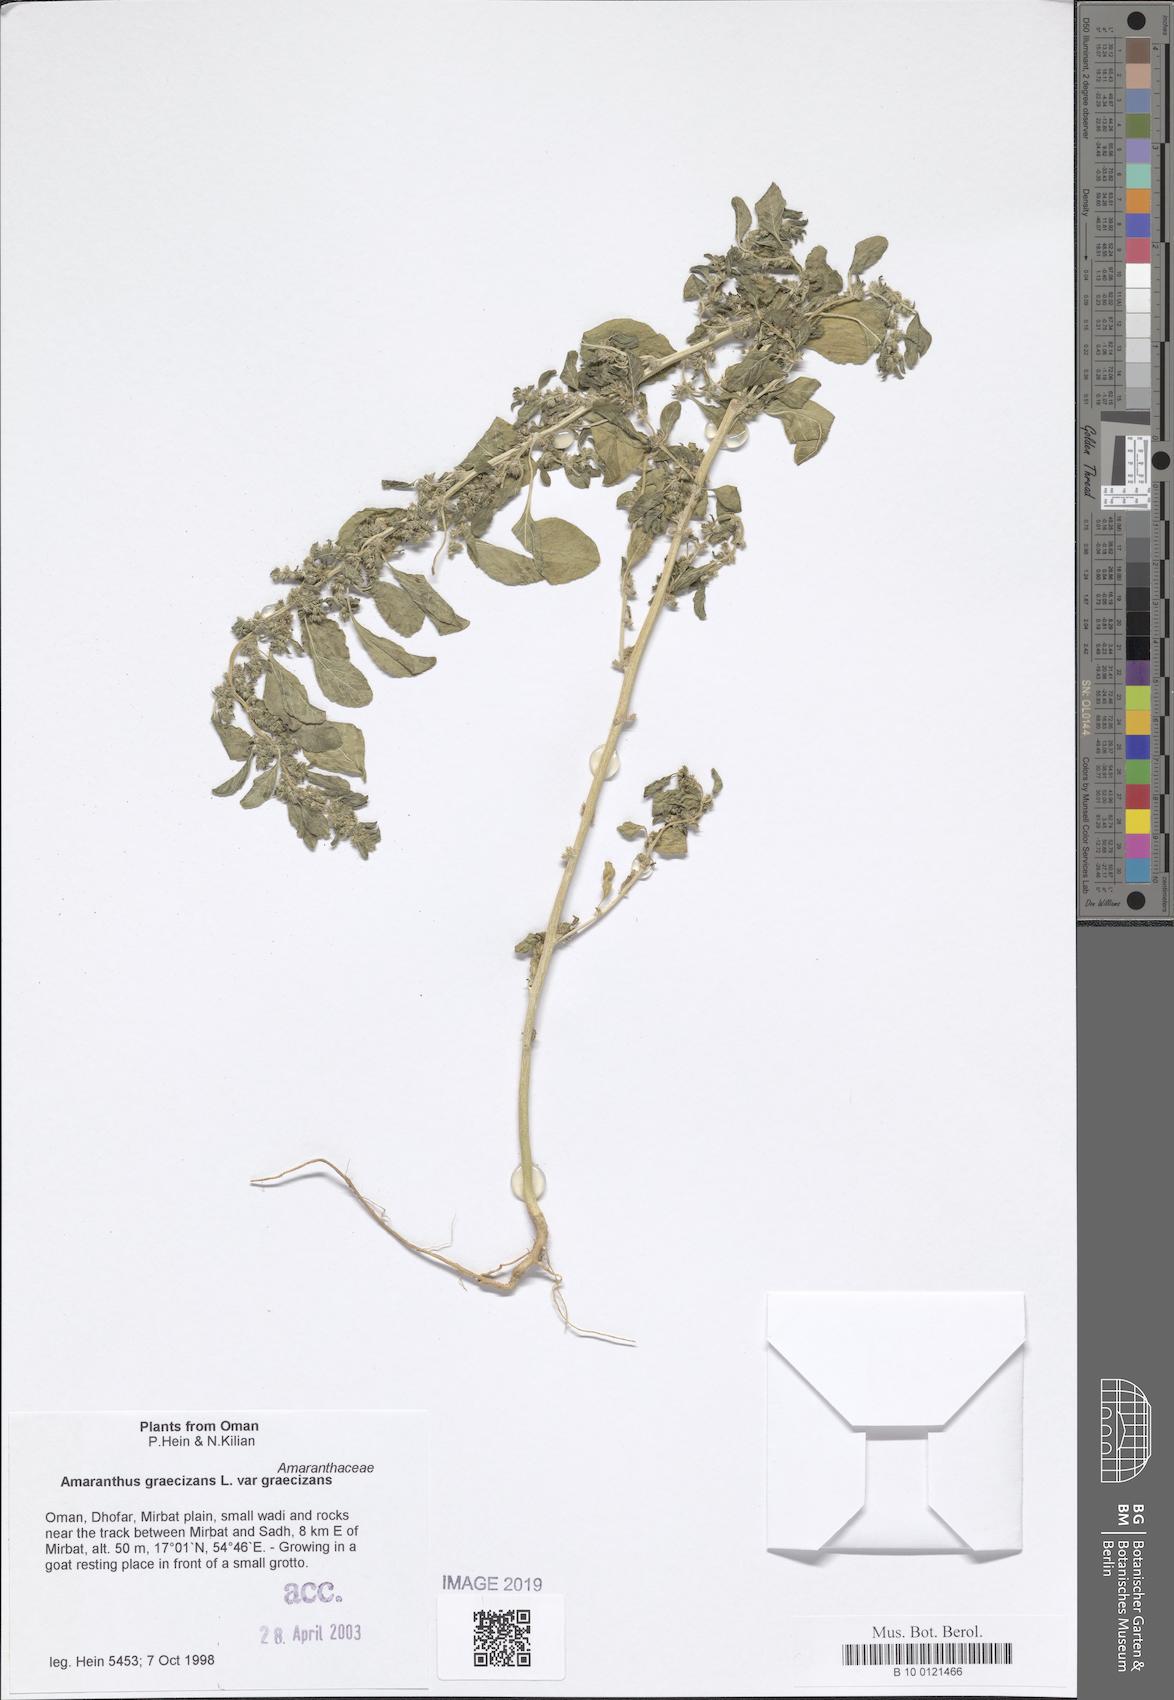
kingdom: Plantae
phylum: Tracheophyta
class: Magnoliopsida
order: Caryophyllales
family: Amaranthaceae
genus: Amaranthus
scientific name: Amaranthus graecizans
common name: Mediterranean amaranth
